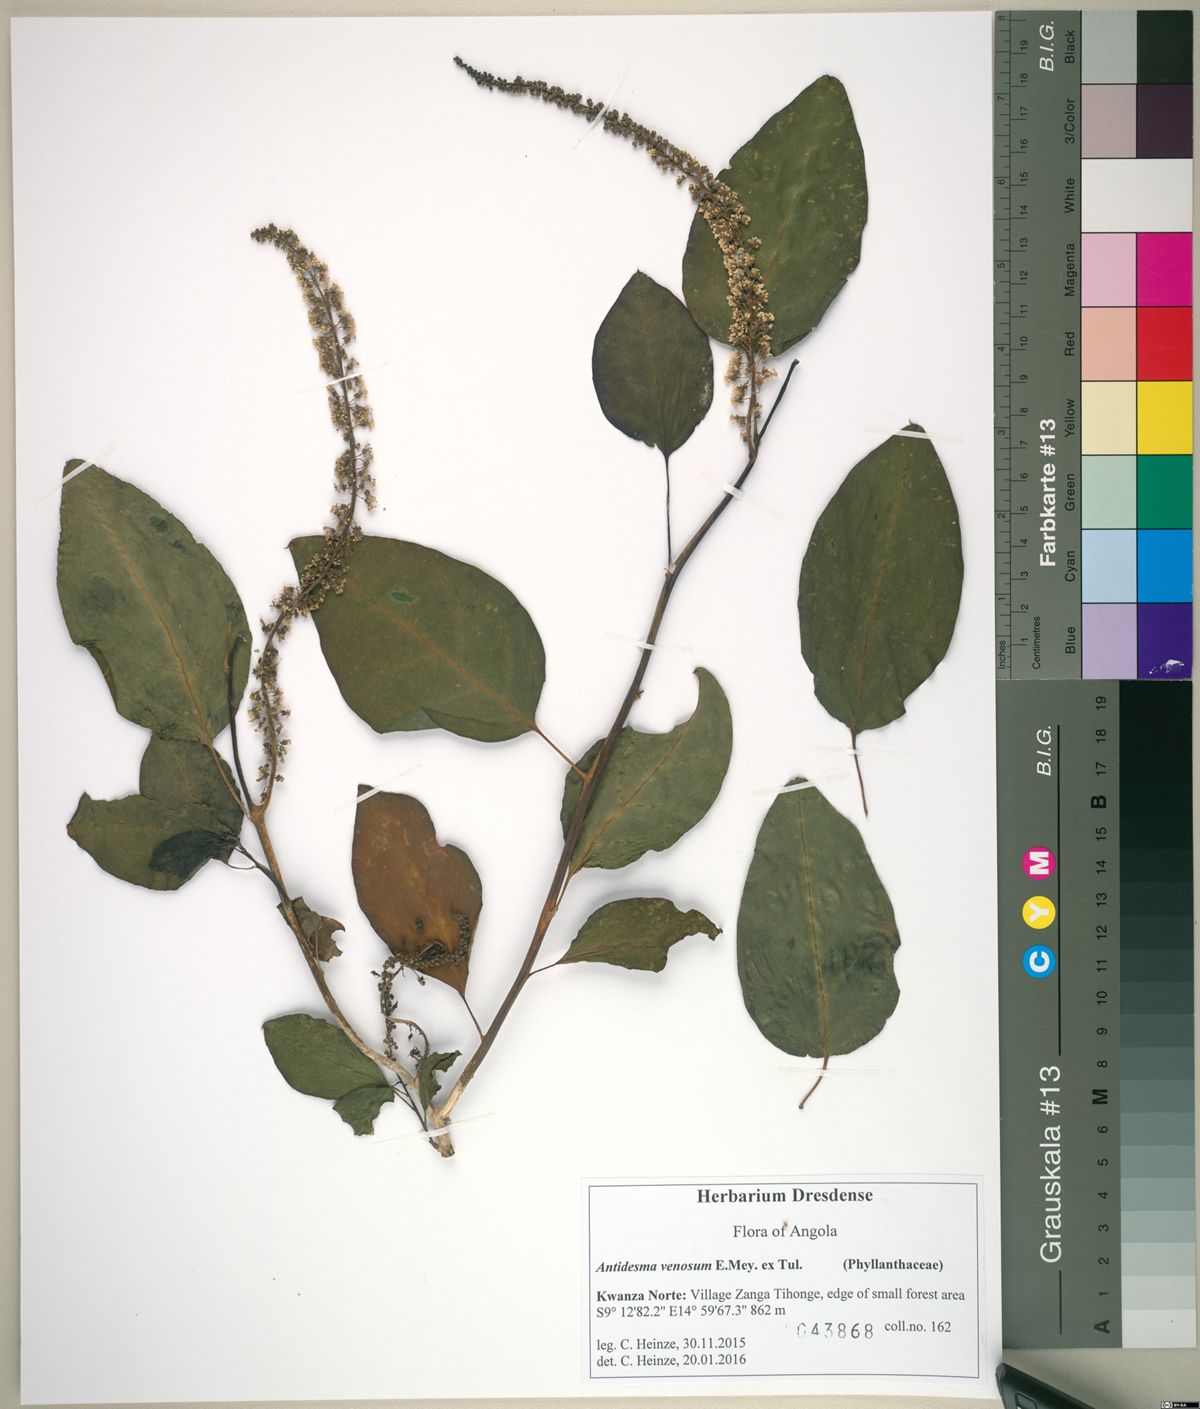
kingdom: Plantae
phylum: Tracheophyta
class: Magnoliopsida
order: Malpighiales
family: Phyllanthaceae
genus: Antidesma
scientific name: Antidesma venosum
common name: Tassel-berry
